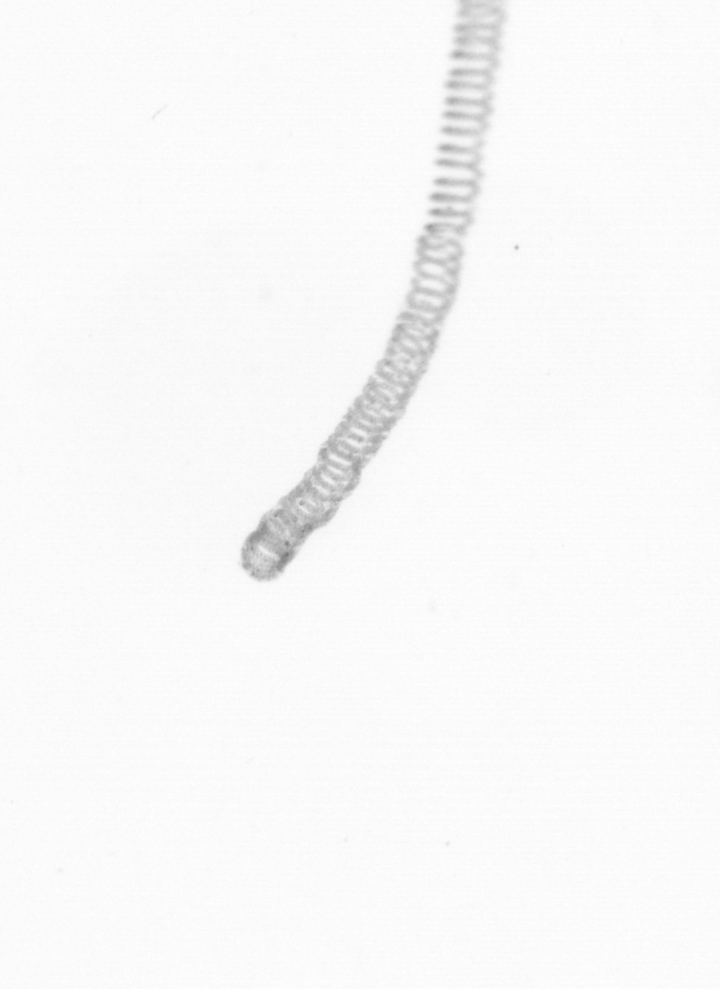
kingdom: Chromista
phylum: Ochrophyta
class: Bacillariophyceae
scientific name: Bacillariophyceae
